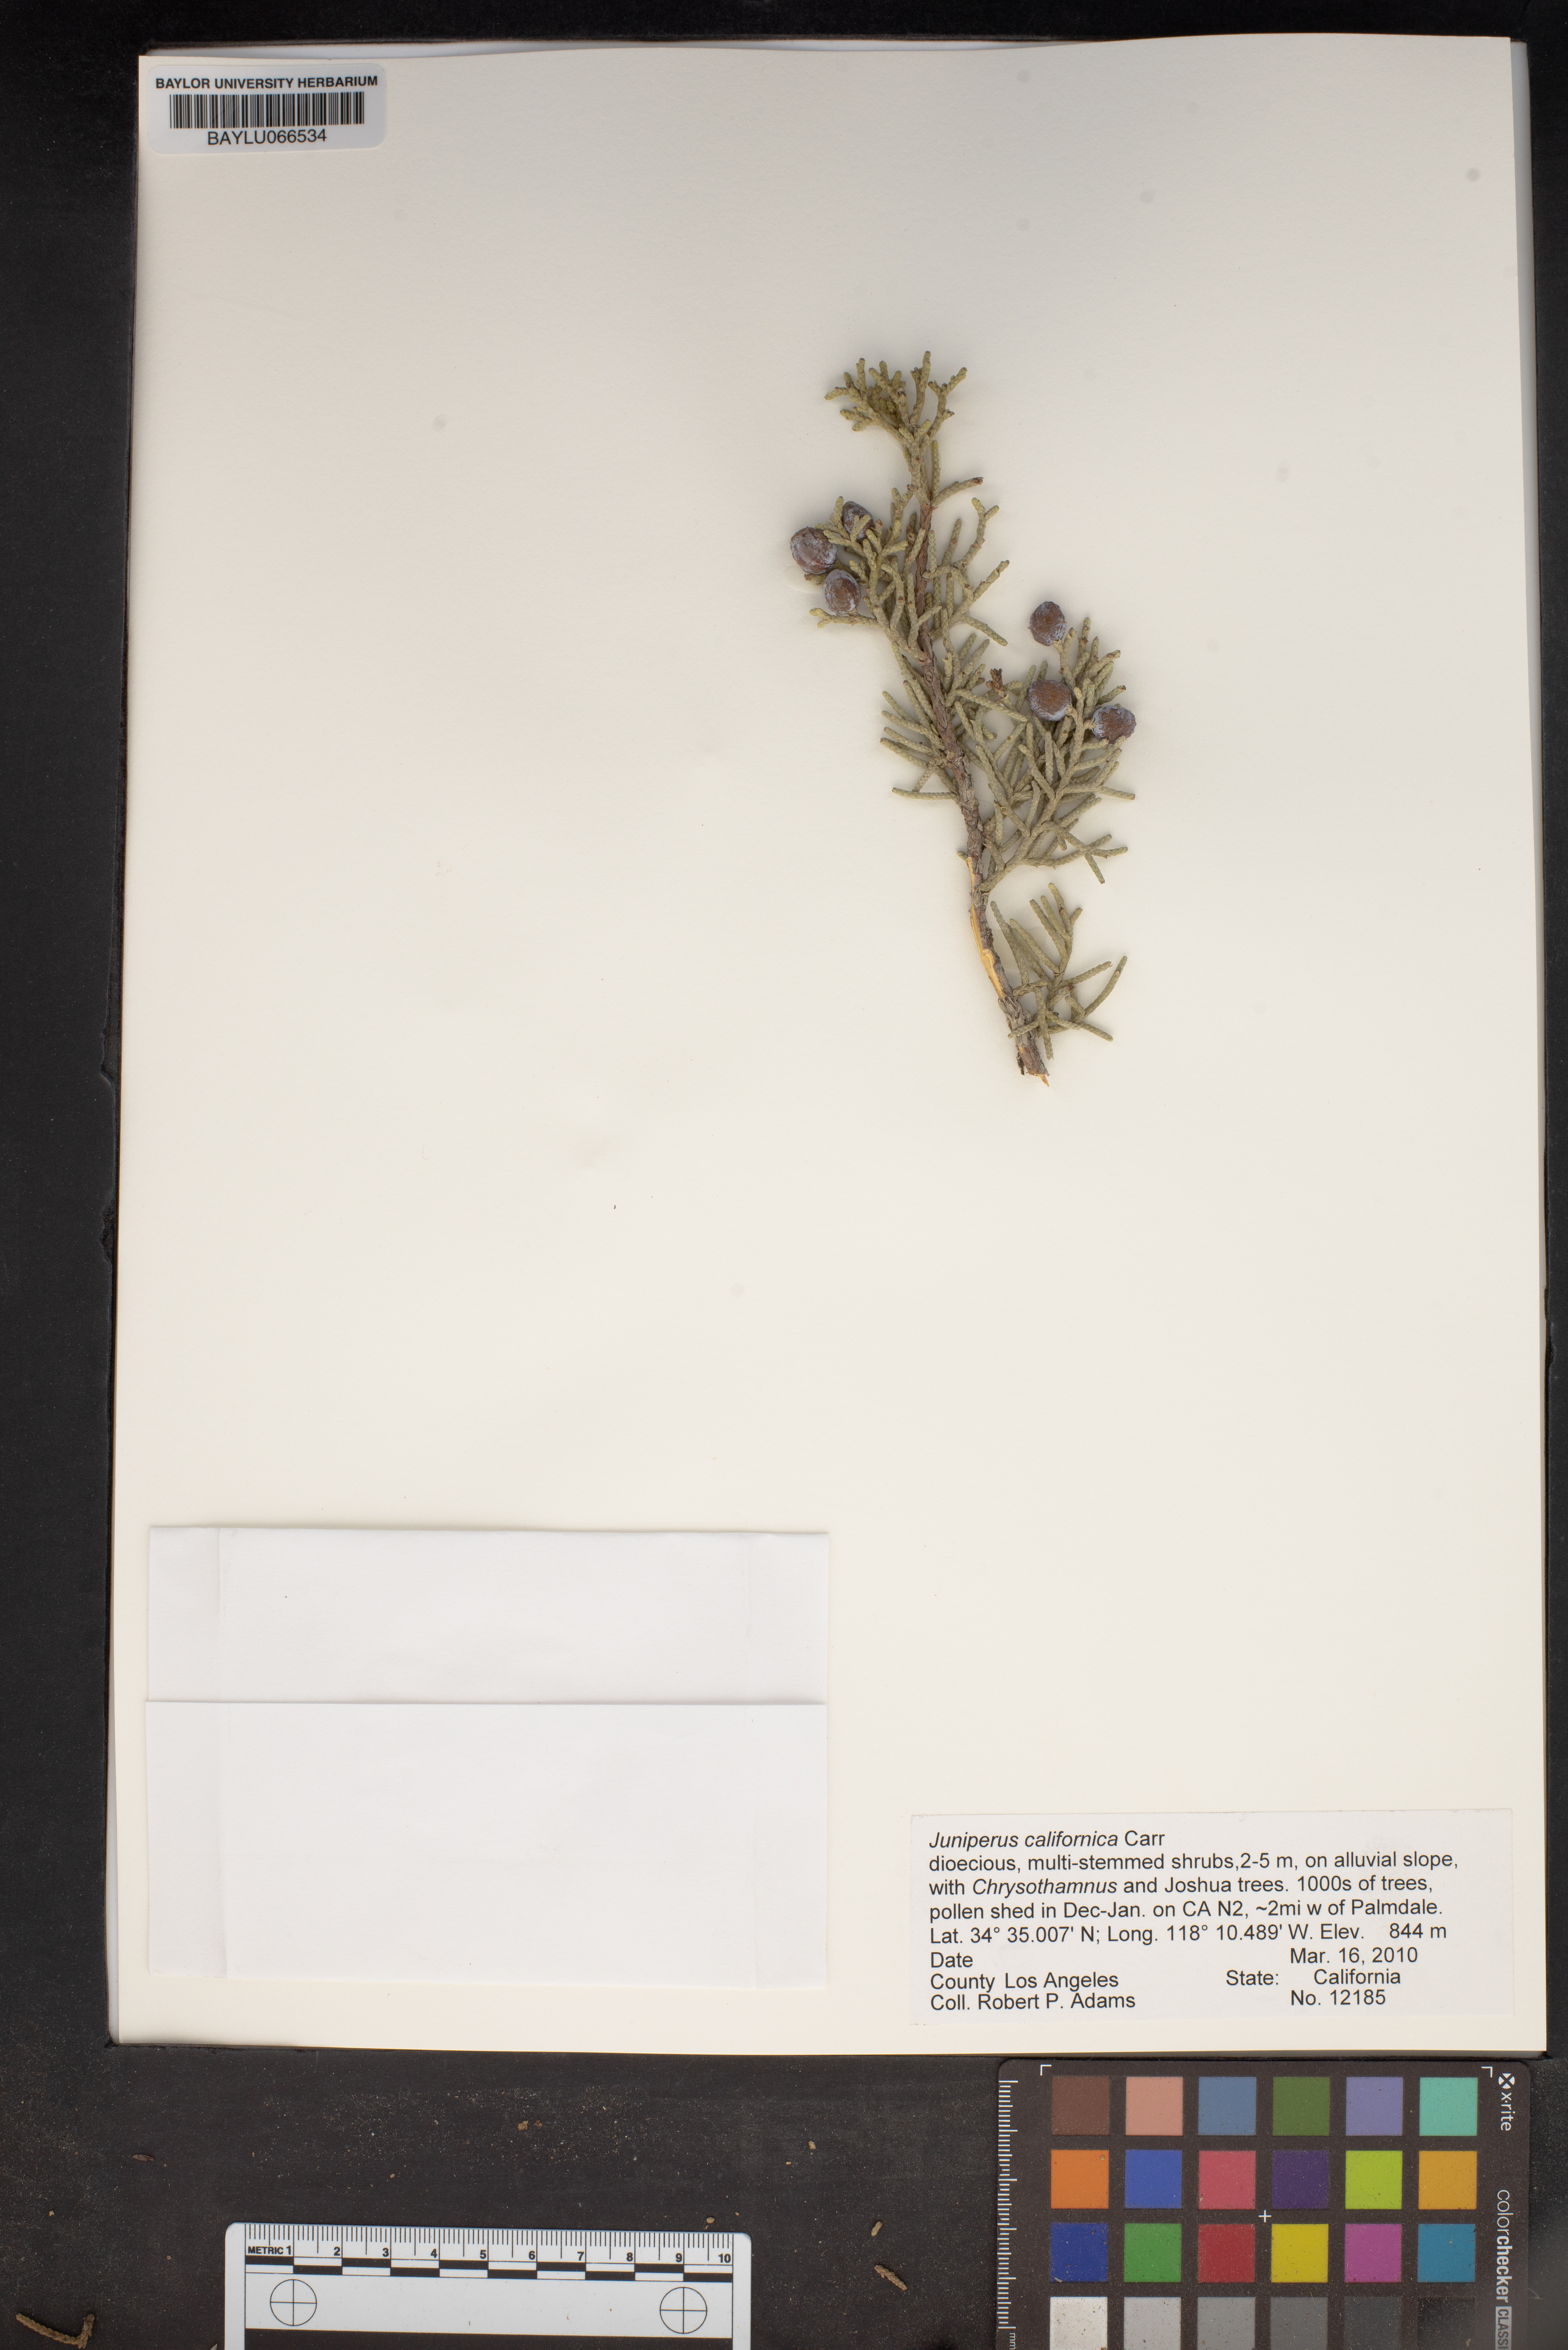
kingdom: Plantae
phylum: Tracheophyta
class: Pinopsida
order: Pinales
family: Cupressaceae
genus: Juniperus
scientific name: Juniperus californica
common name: California juniper
